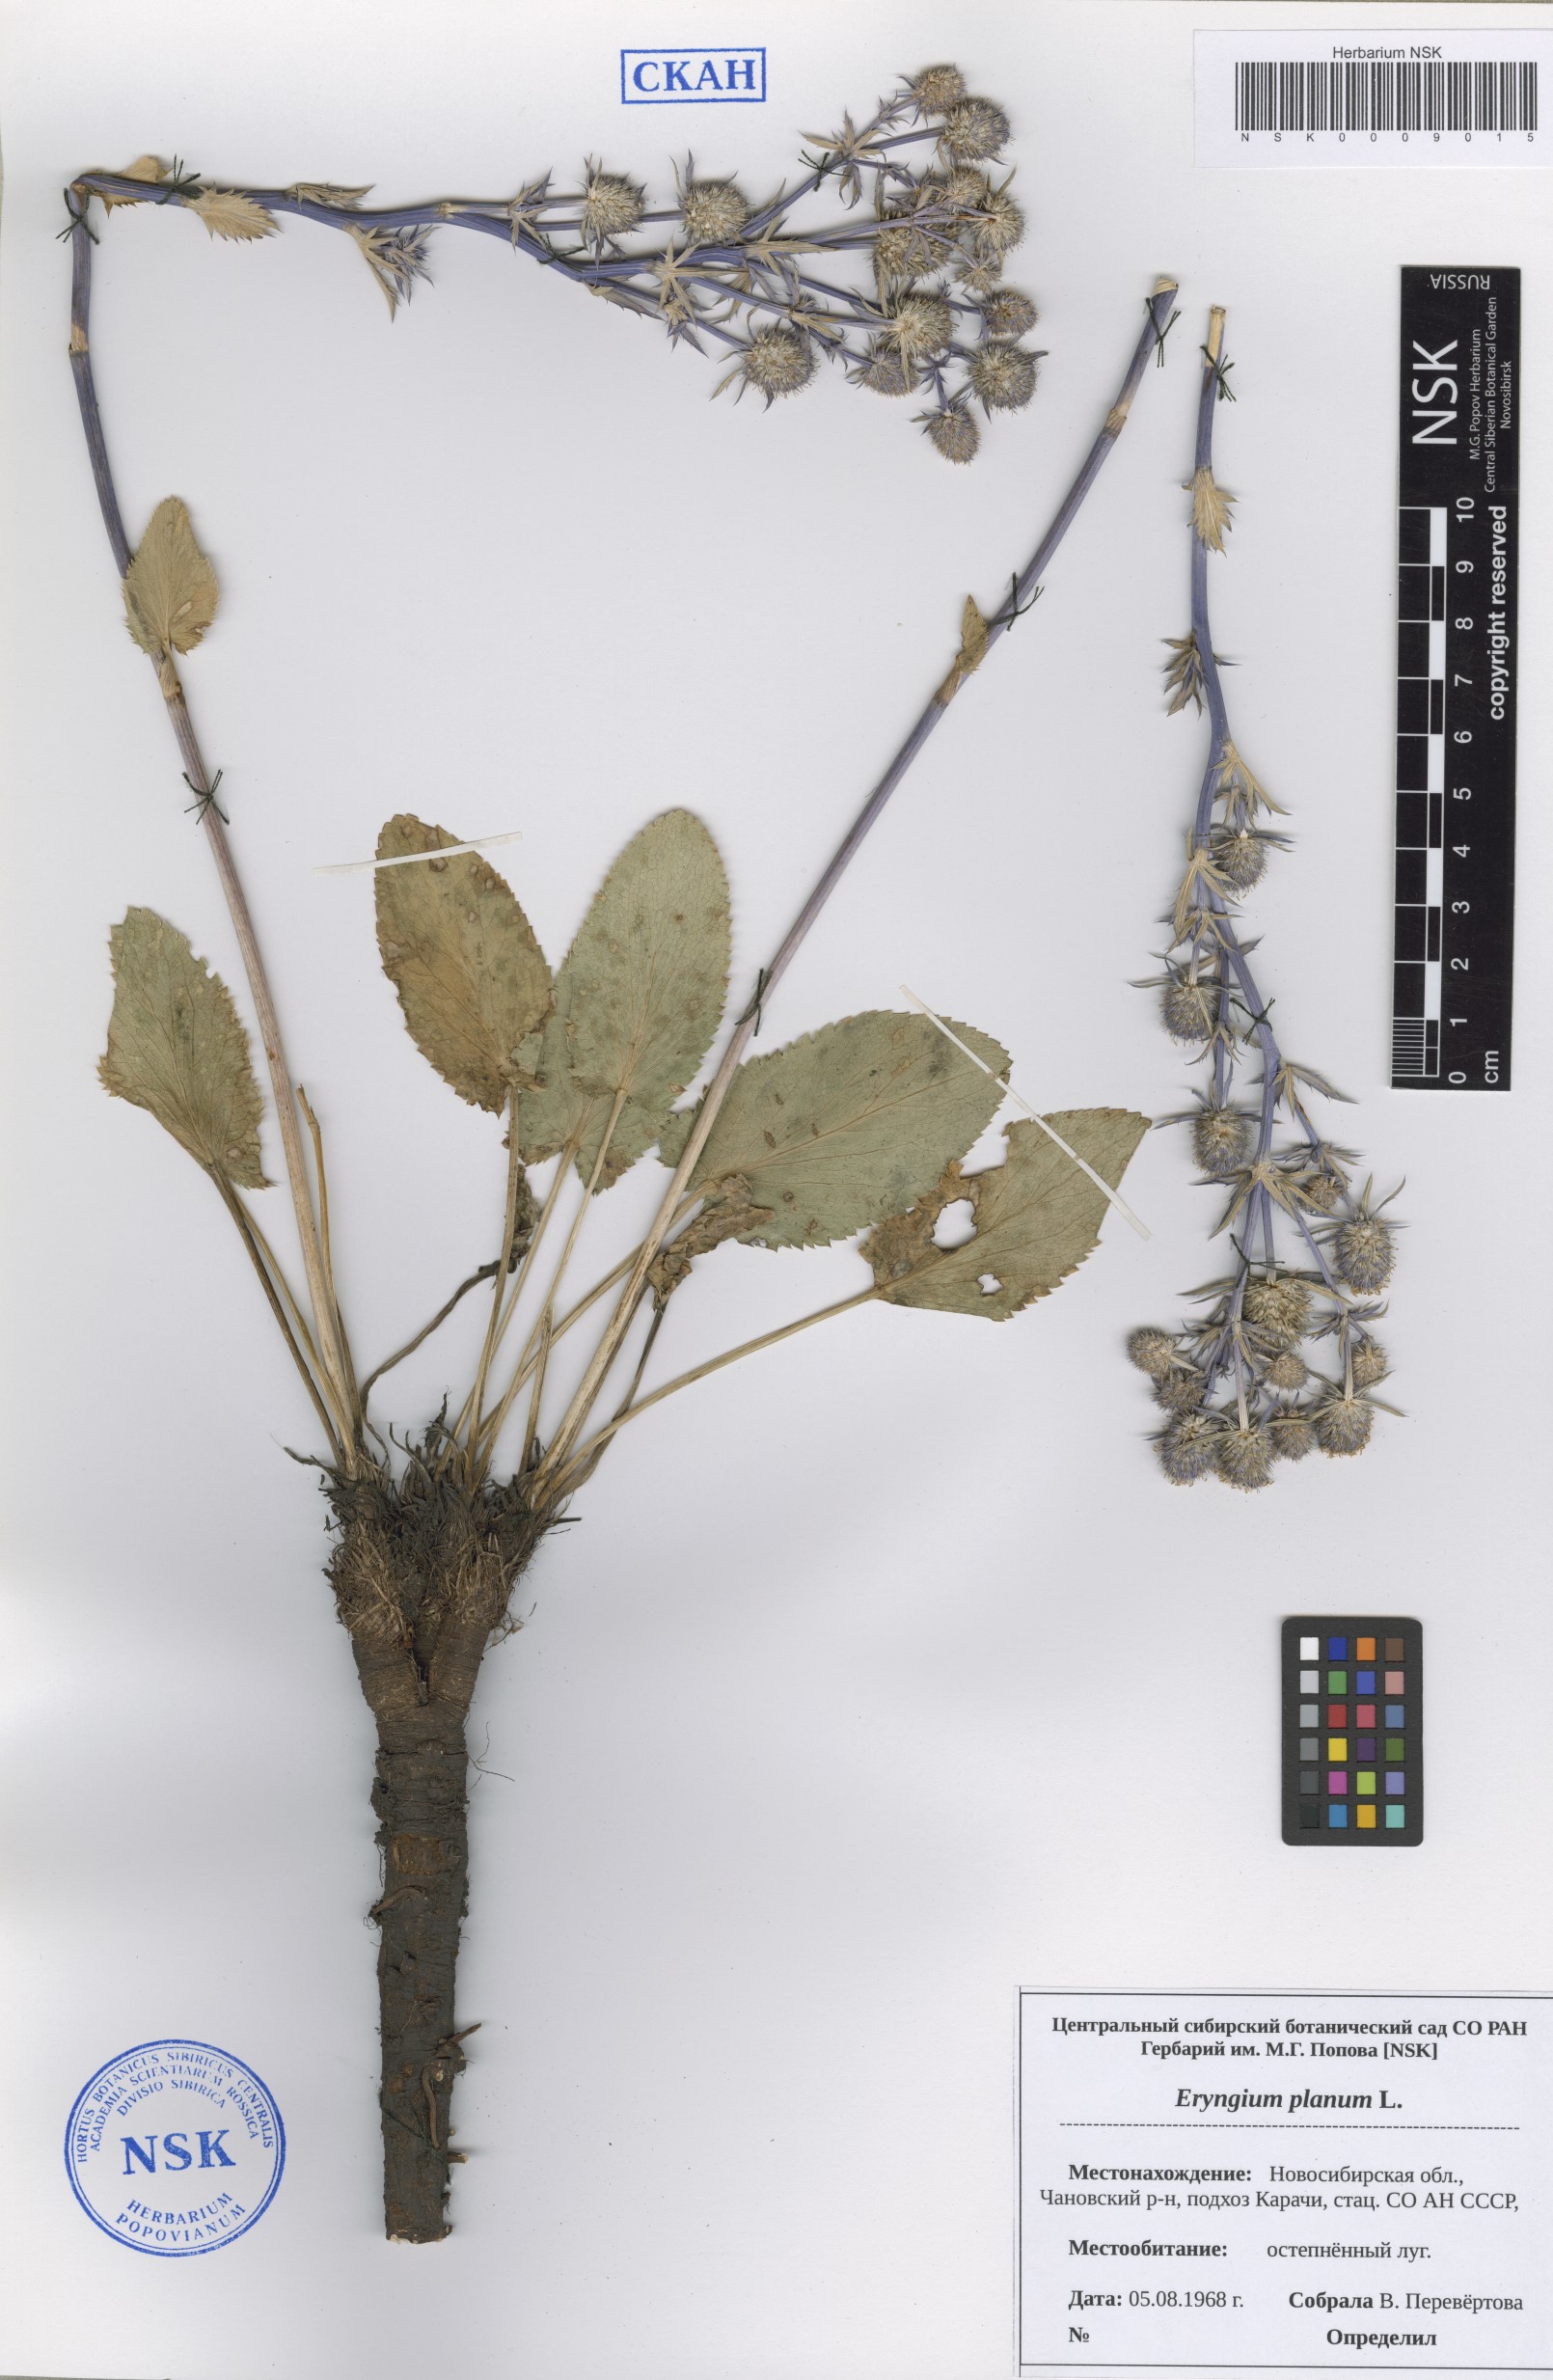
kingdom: Plantae
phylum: Tracheophyta
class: Magnoliopsida
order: Apiales
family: Apiaceae
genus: Eryngium
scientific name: Eryngium planum
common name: Blue eryngo
